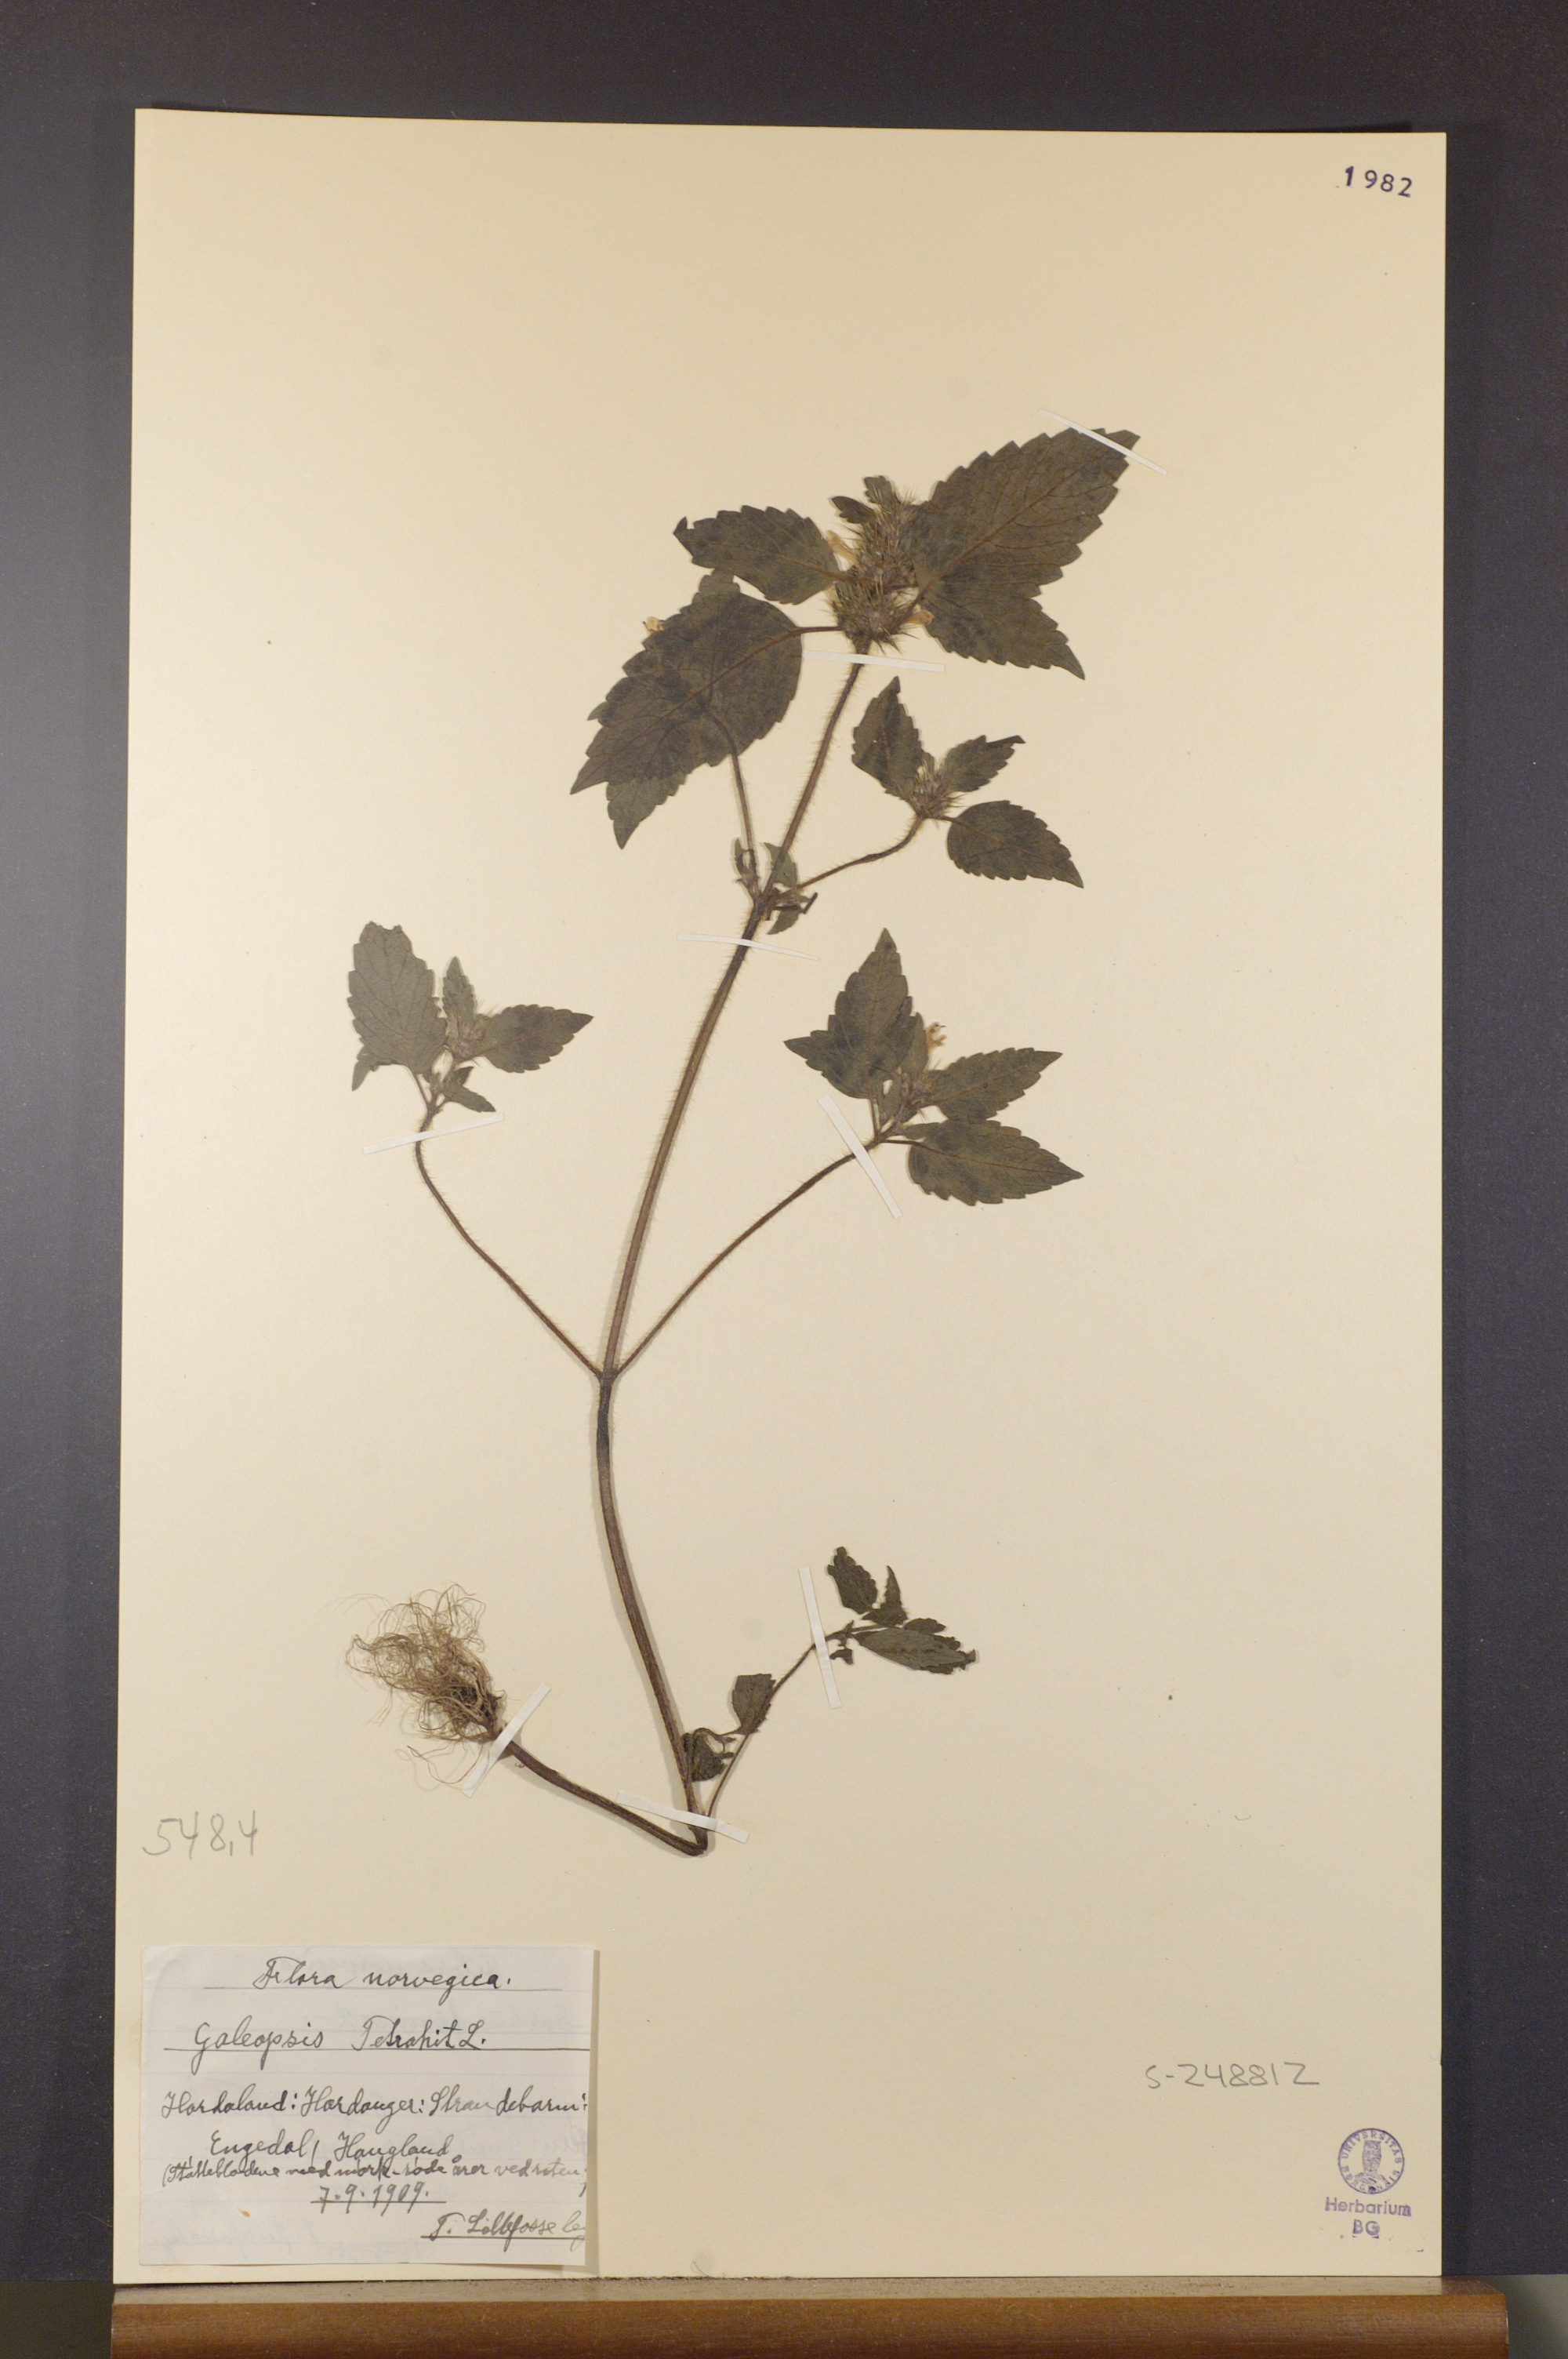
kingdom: Plantae
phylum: Tracheophyta
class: Magnoliopsida
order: Lamiales
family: Lamiaceae
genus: Galeopsis
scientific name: Galeopsis tetrahit
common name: Common hemp-nettle
